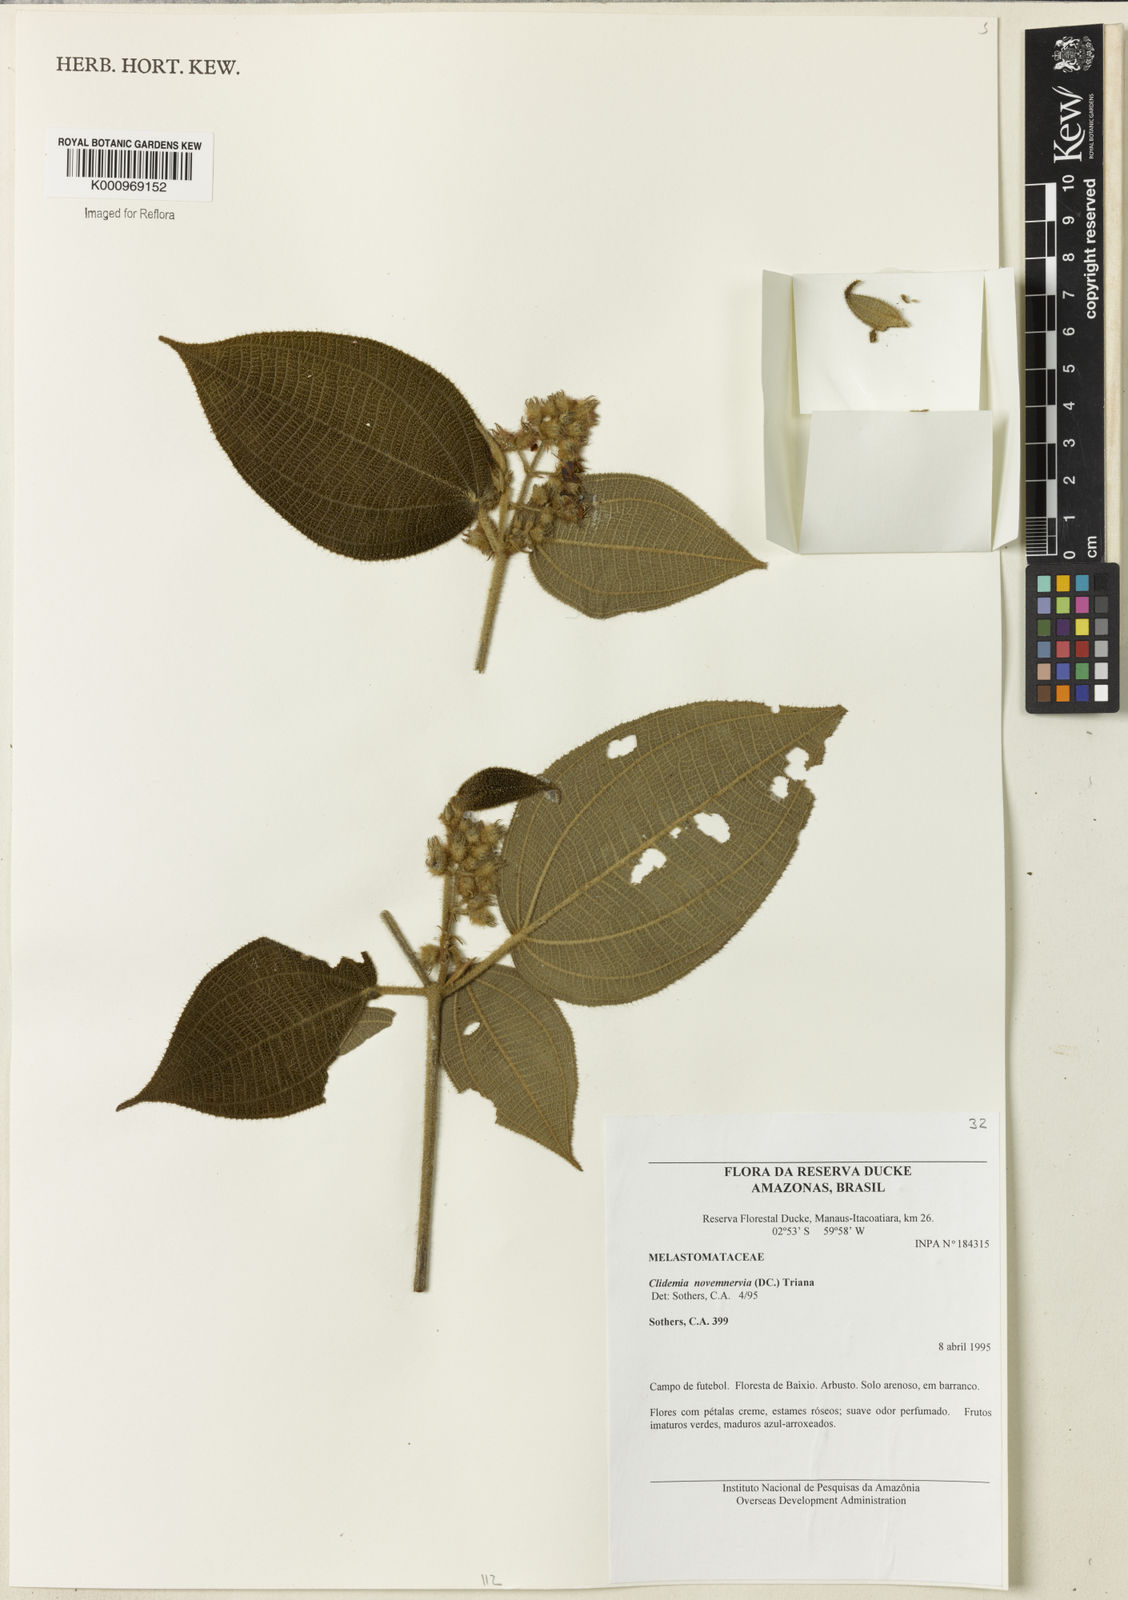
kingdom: Plantae
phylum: Tracheophyta
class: Magnoliopsida
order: Myrtales
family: Melastomataceae
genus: Miconia
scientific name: Miconia bullatifolia
